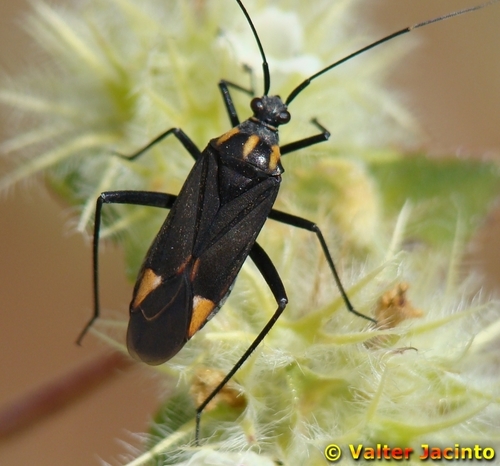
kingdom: Animalia
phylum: Arthropoda
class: Insecta
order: Hemiptera
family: Miridae
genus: Hadrodemus
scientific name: Hadrodemus noualhieri
